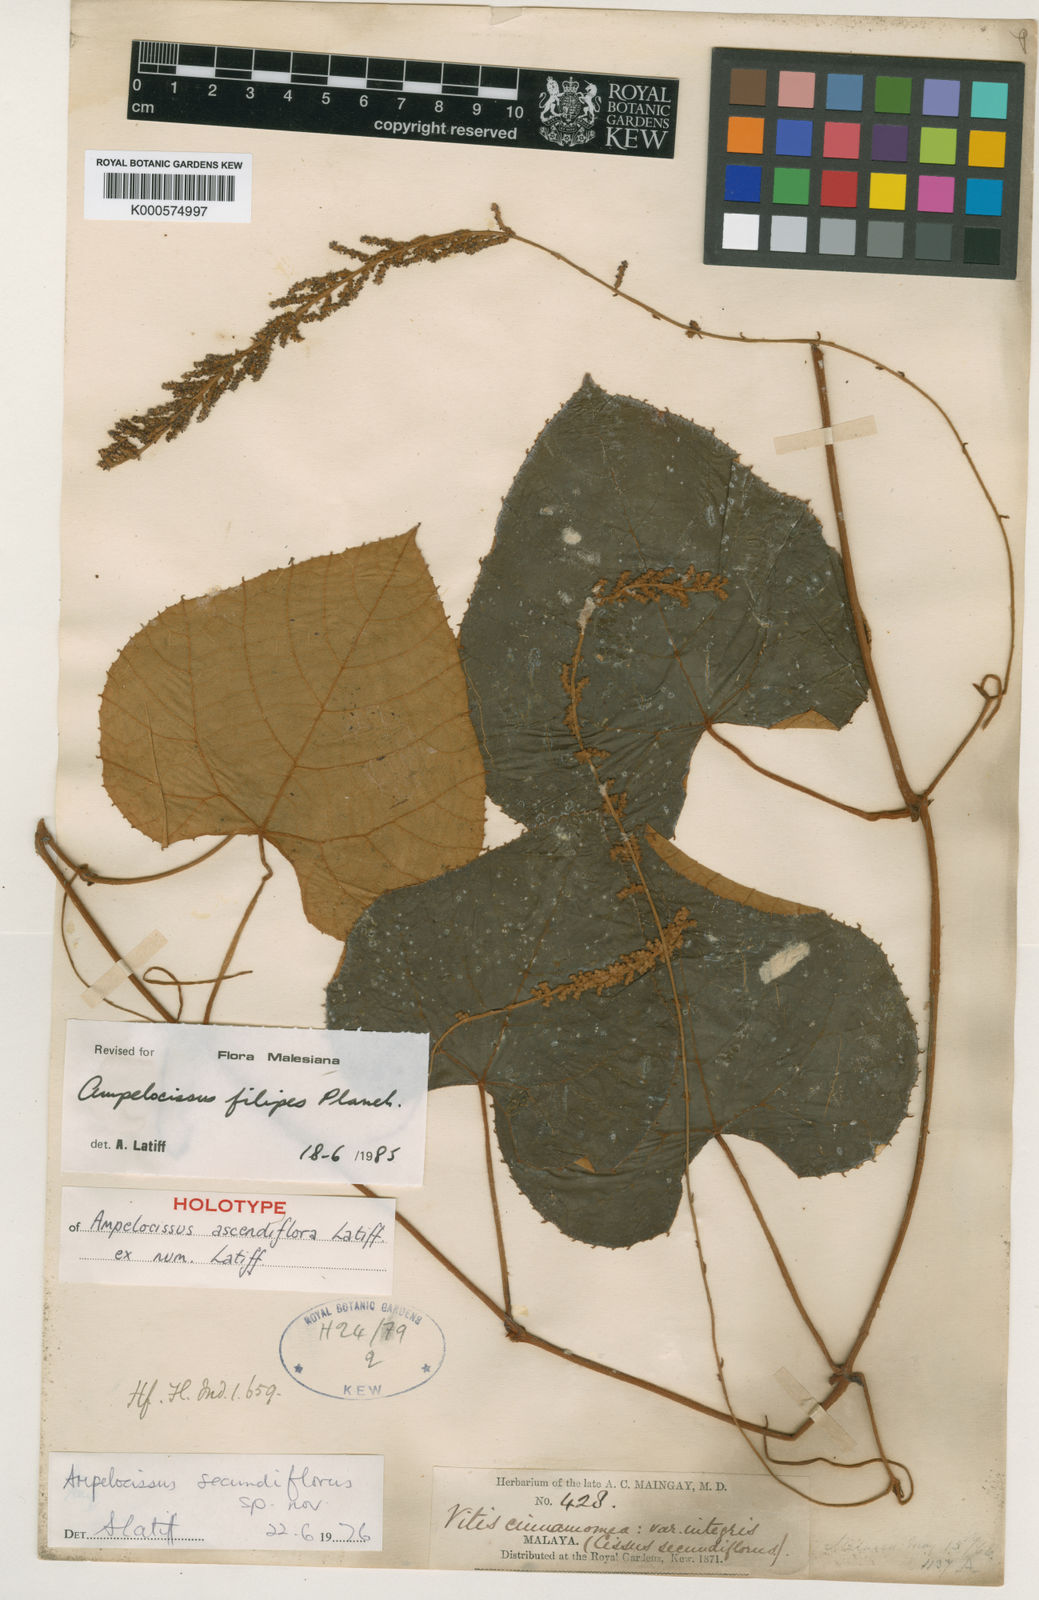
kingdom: Plantae
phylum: Tracheophyta
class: Magnoliopsida
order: Vitales
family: Vitaceae
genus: Ampelocissus
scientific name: Ampelocissus filipes
